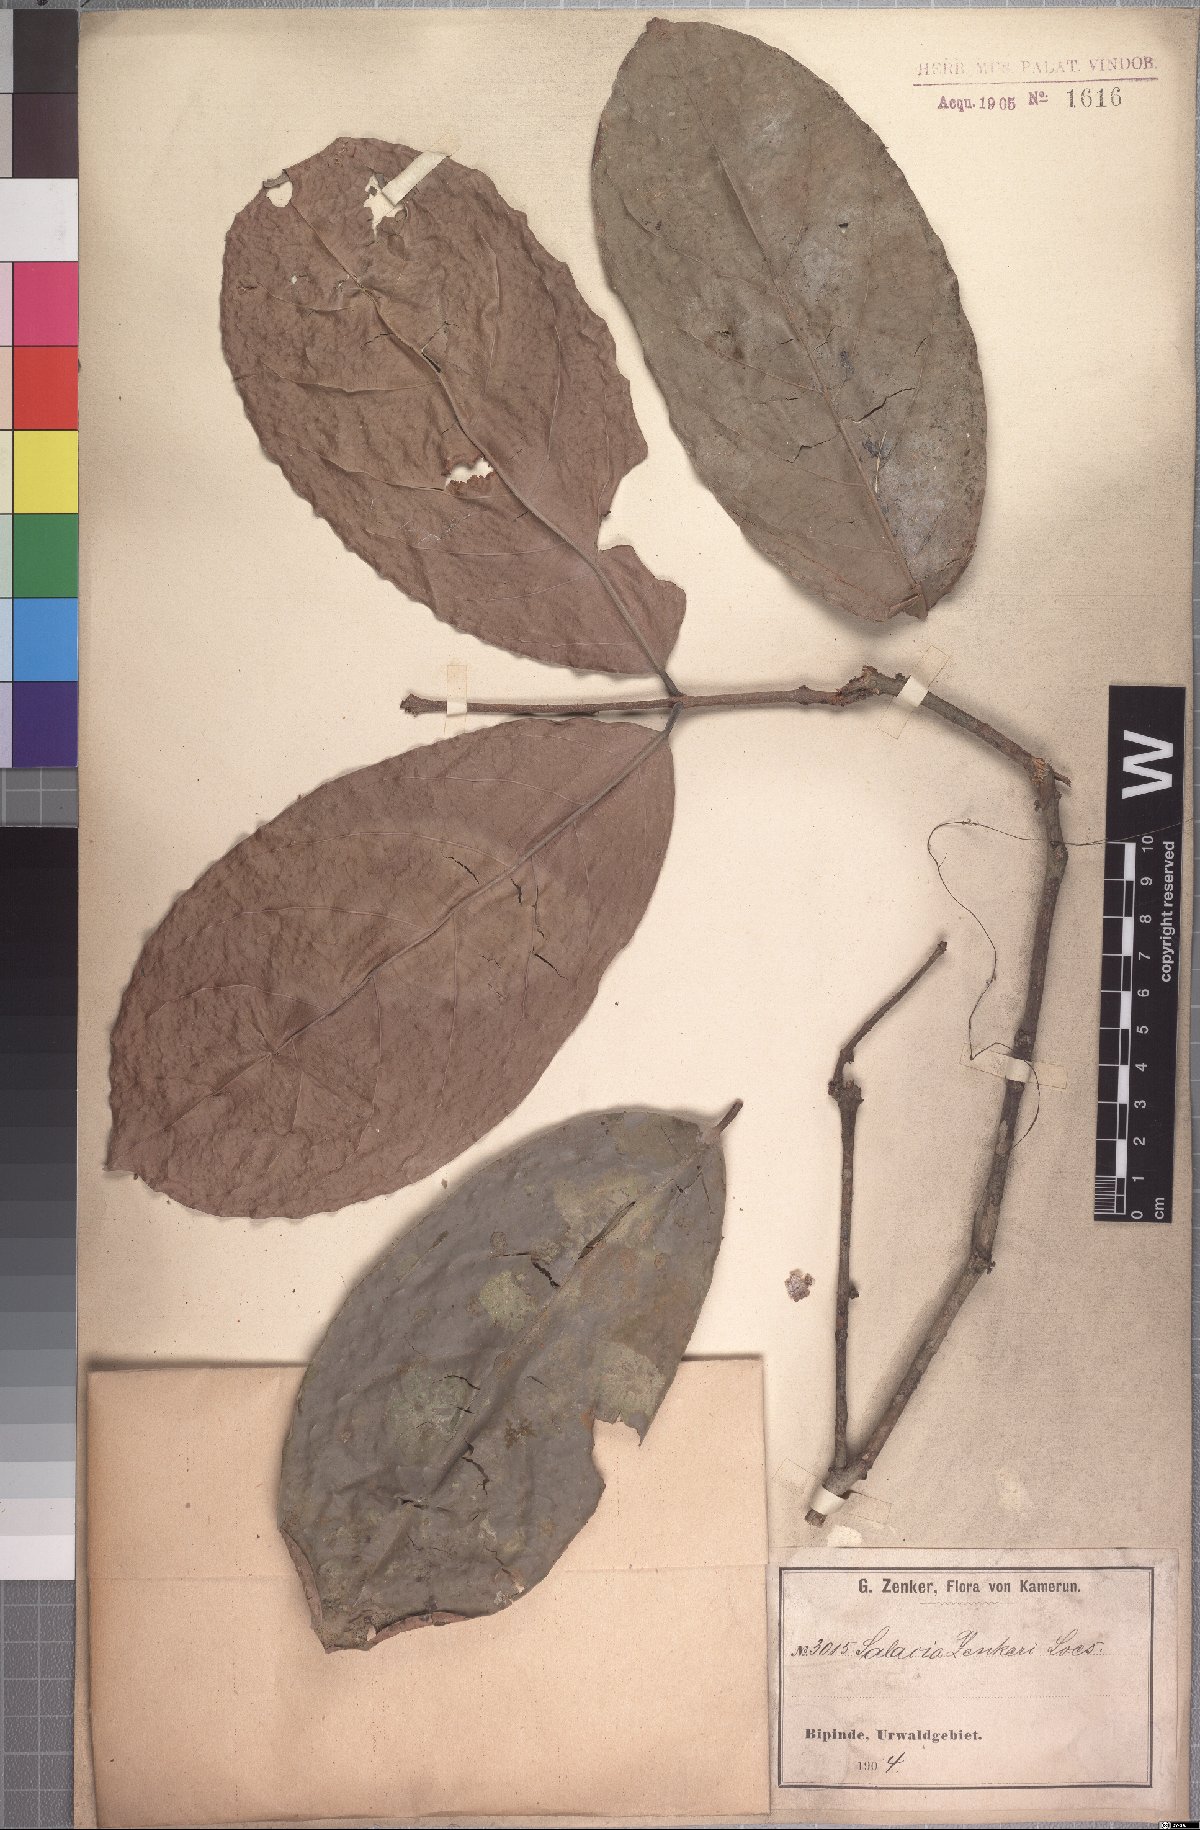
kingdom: Plantae
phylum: Tracheophyta
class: Magnoliopsida
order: Celastrales
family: Celastraceae
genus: Salacia
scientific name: Salacia zenkeri
